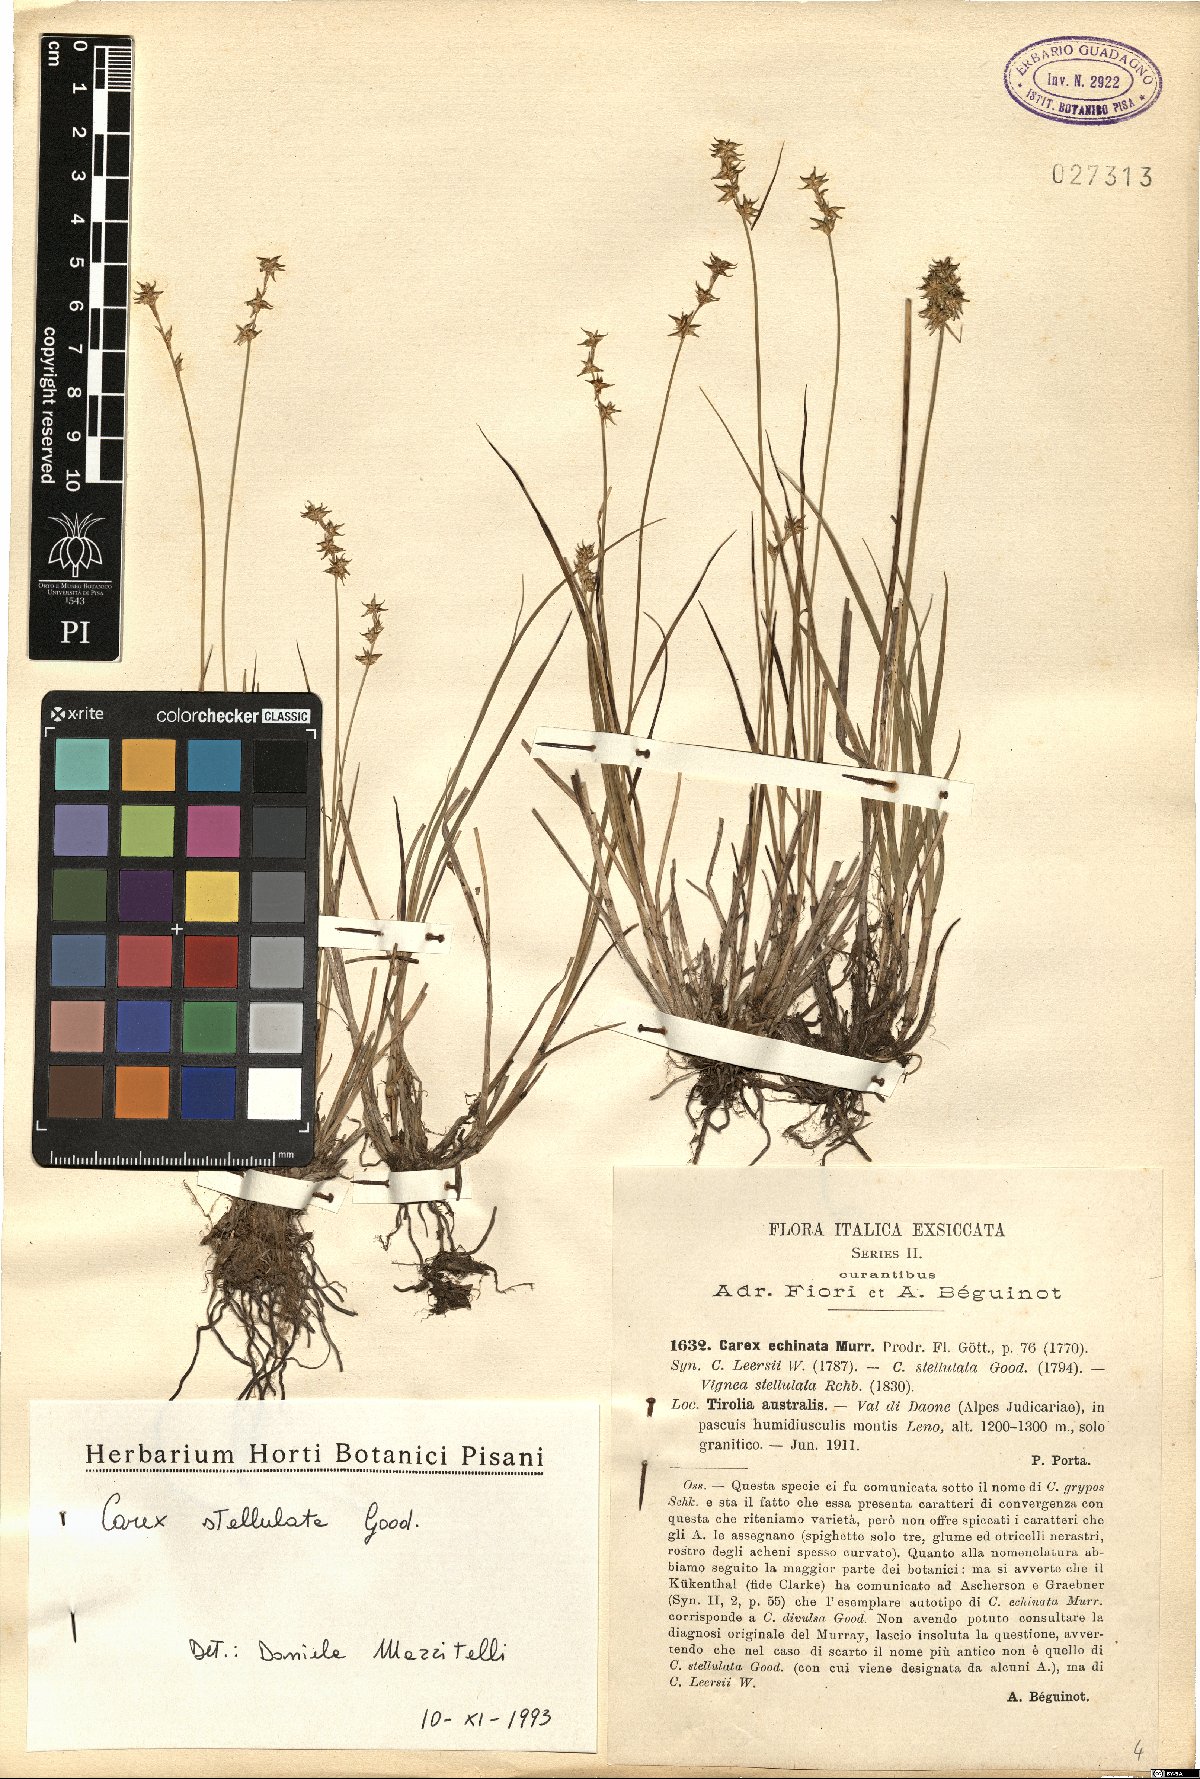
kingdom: Plantae
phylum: Tracheophyta
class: Liliopsida
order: Poales
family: Cyperaceae
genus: Carex
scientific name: Carex echinata
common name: Star sedge
